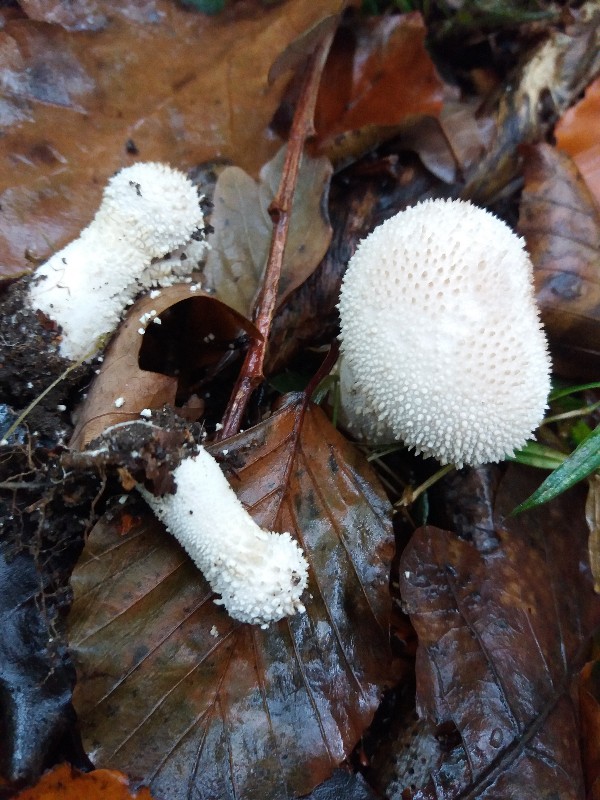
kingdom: Fungi
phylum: Basidiomycota
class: Agaricomycetes
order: Agaricales
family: Lycoperdaceae
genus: Lycoperdon
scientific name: Lycoperdon perlatum
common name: krystal-støvbold
